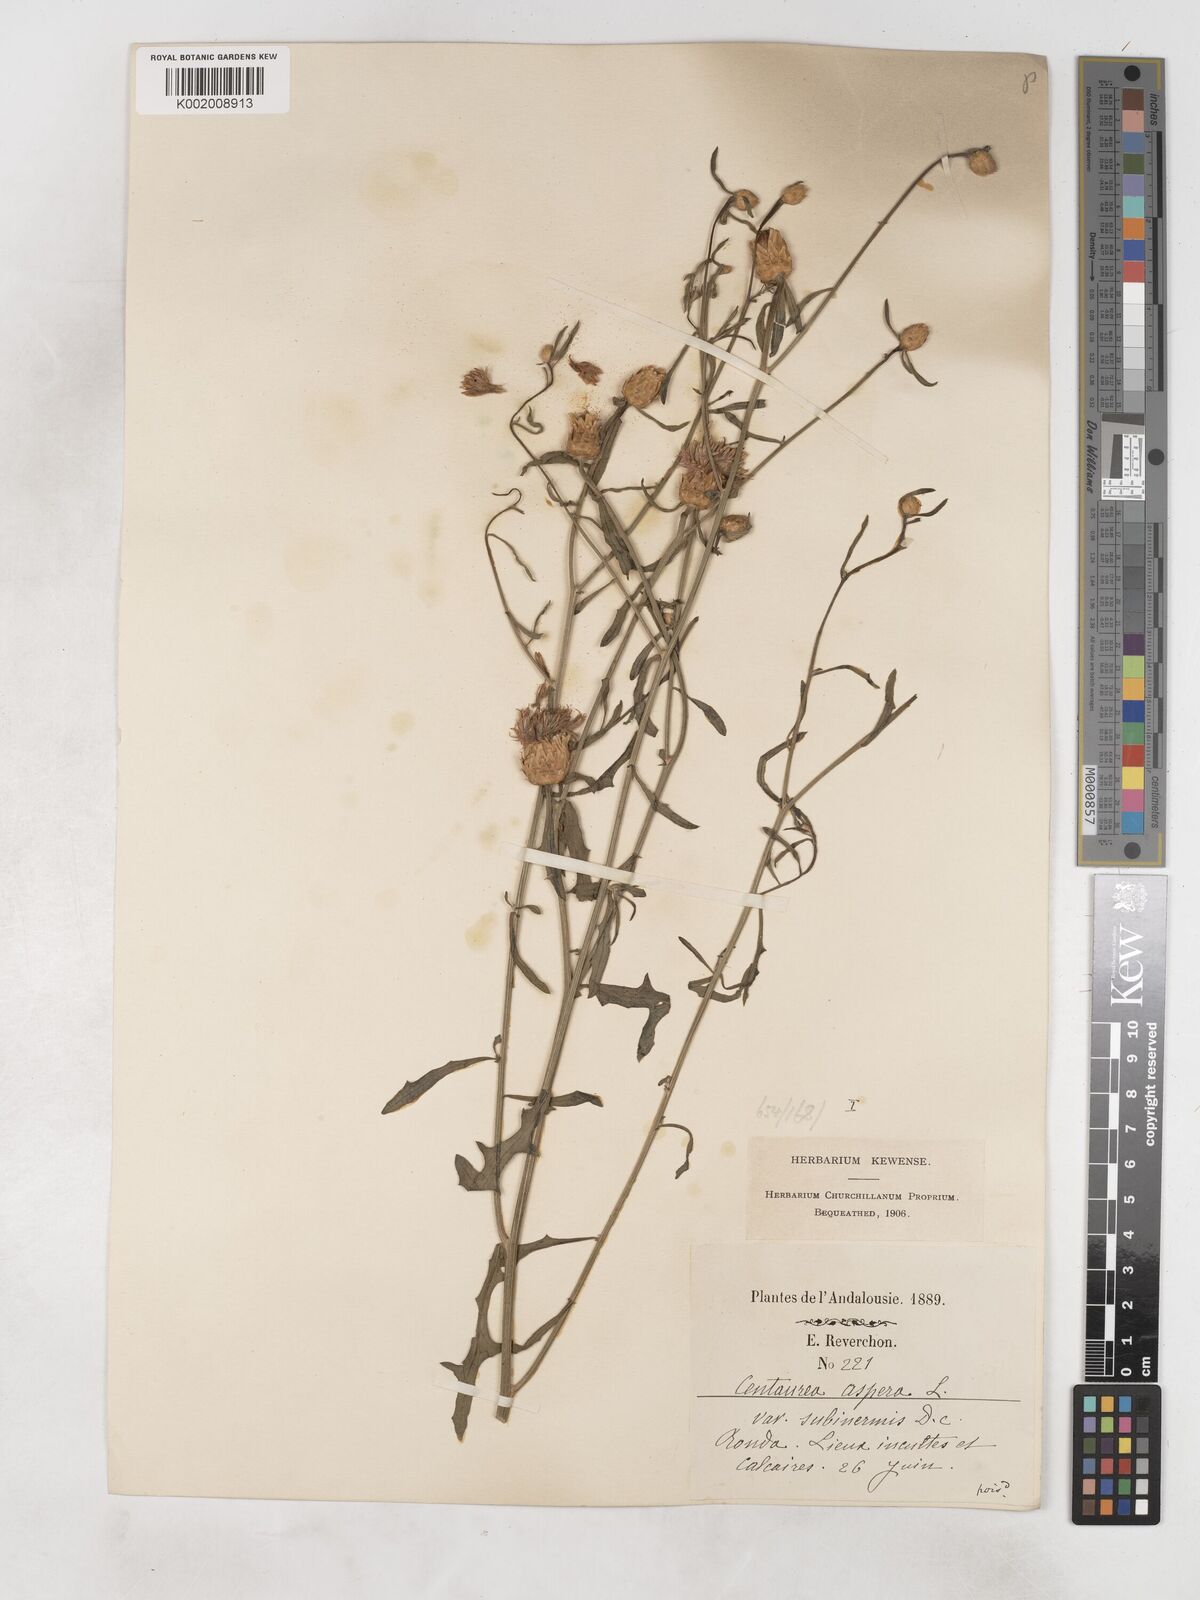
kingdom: Plantae
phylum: Tracheophyta
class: Magnoliopsida
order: Asterales
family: Asteraceae
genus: Centaurea
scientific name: Centaurea aspera
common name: Rough star-thistle
